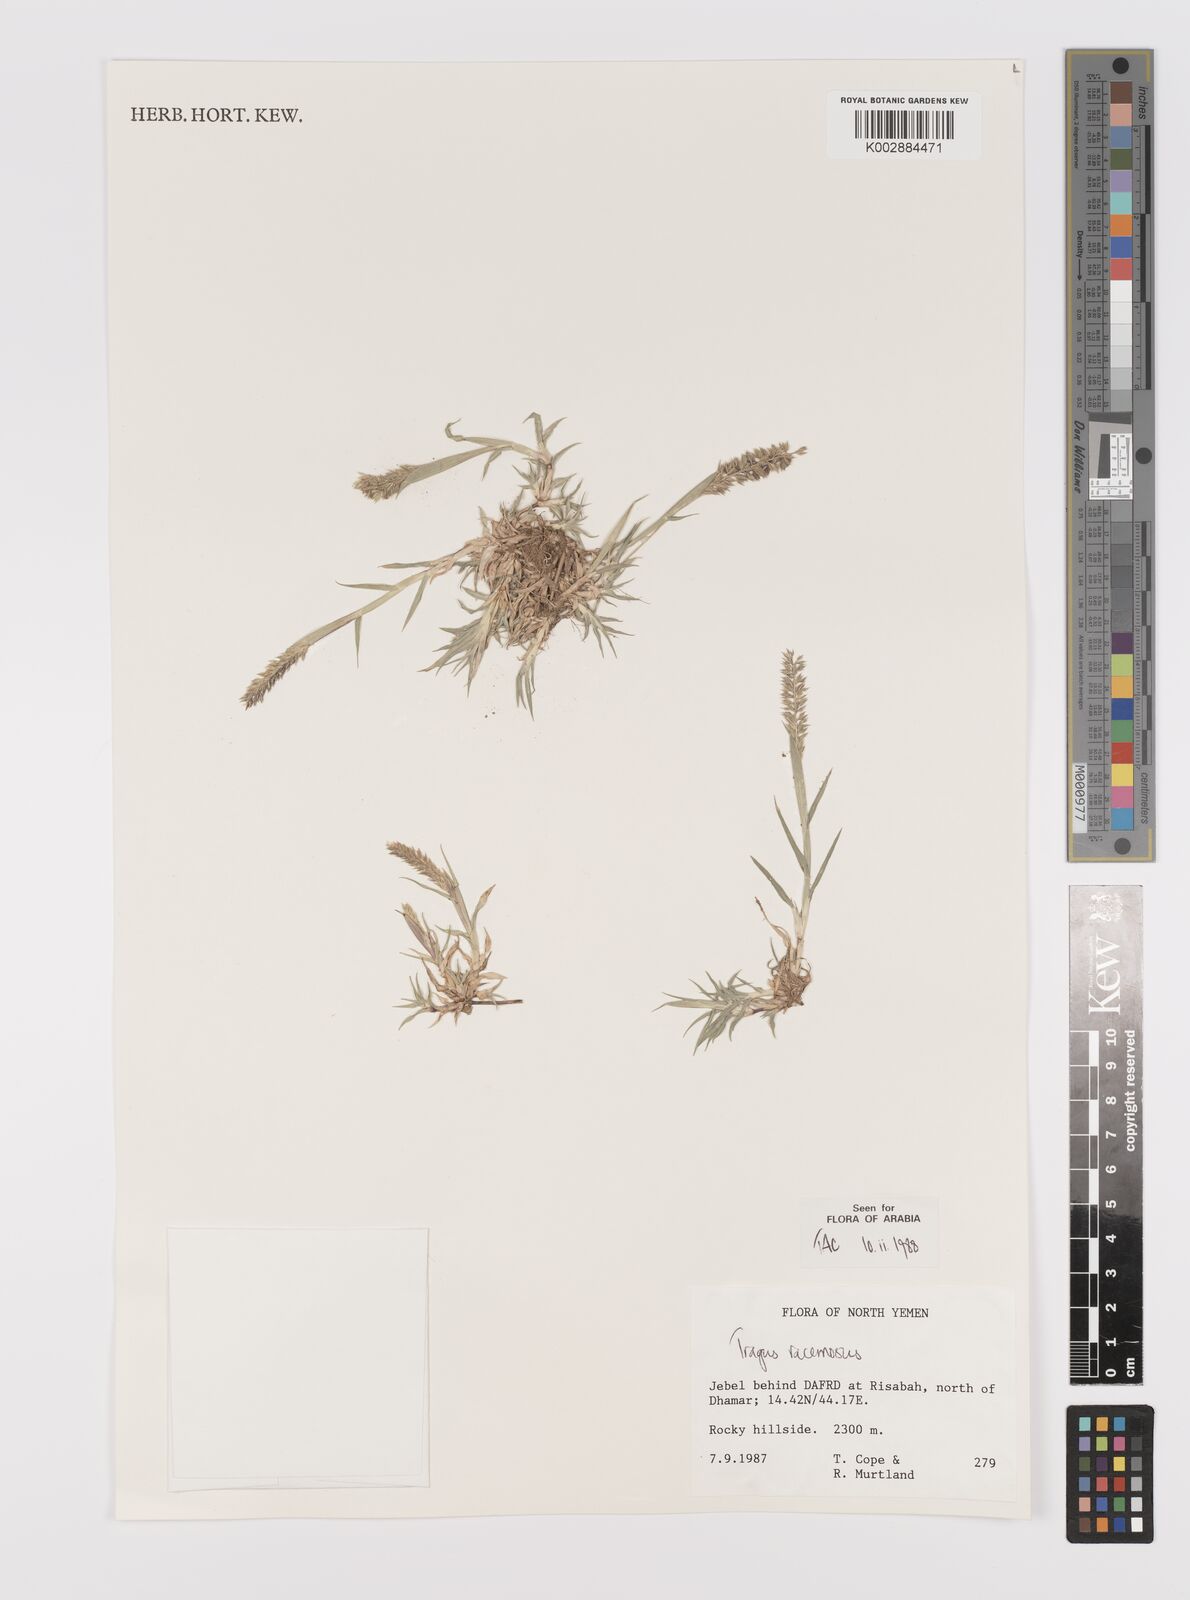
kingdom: Plantae
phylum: Tracheophyta
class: Liliopsida
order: Poales
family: Poaceae
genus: Tragus
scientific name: Tragus racemosus
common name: European bur-grass
